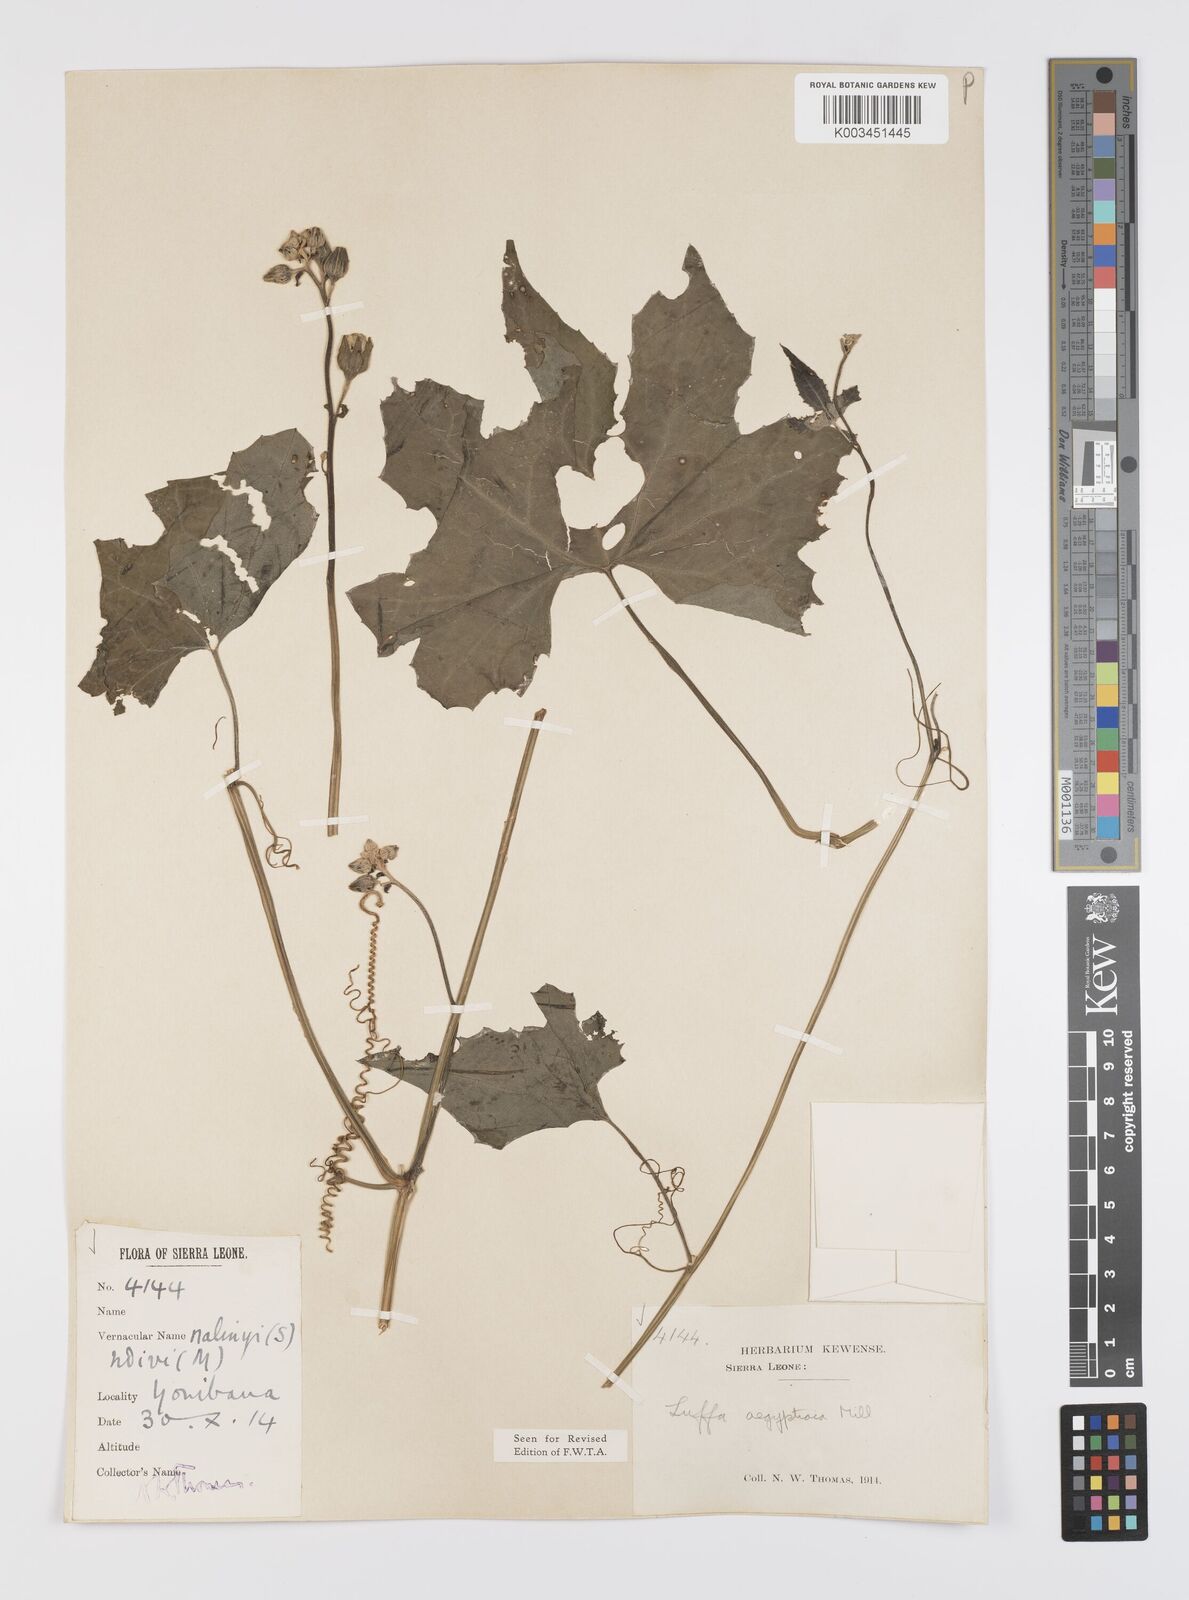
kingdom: Plantae
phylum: Tracheophyta
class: Magnoliopsida
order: Cucurbitales
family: Cucurbitaceae
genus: Luffa
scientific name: Luffa aegyptiaca
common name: Sponge gourd
